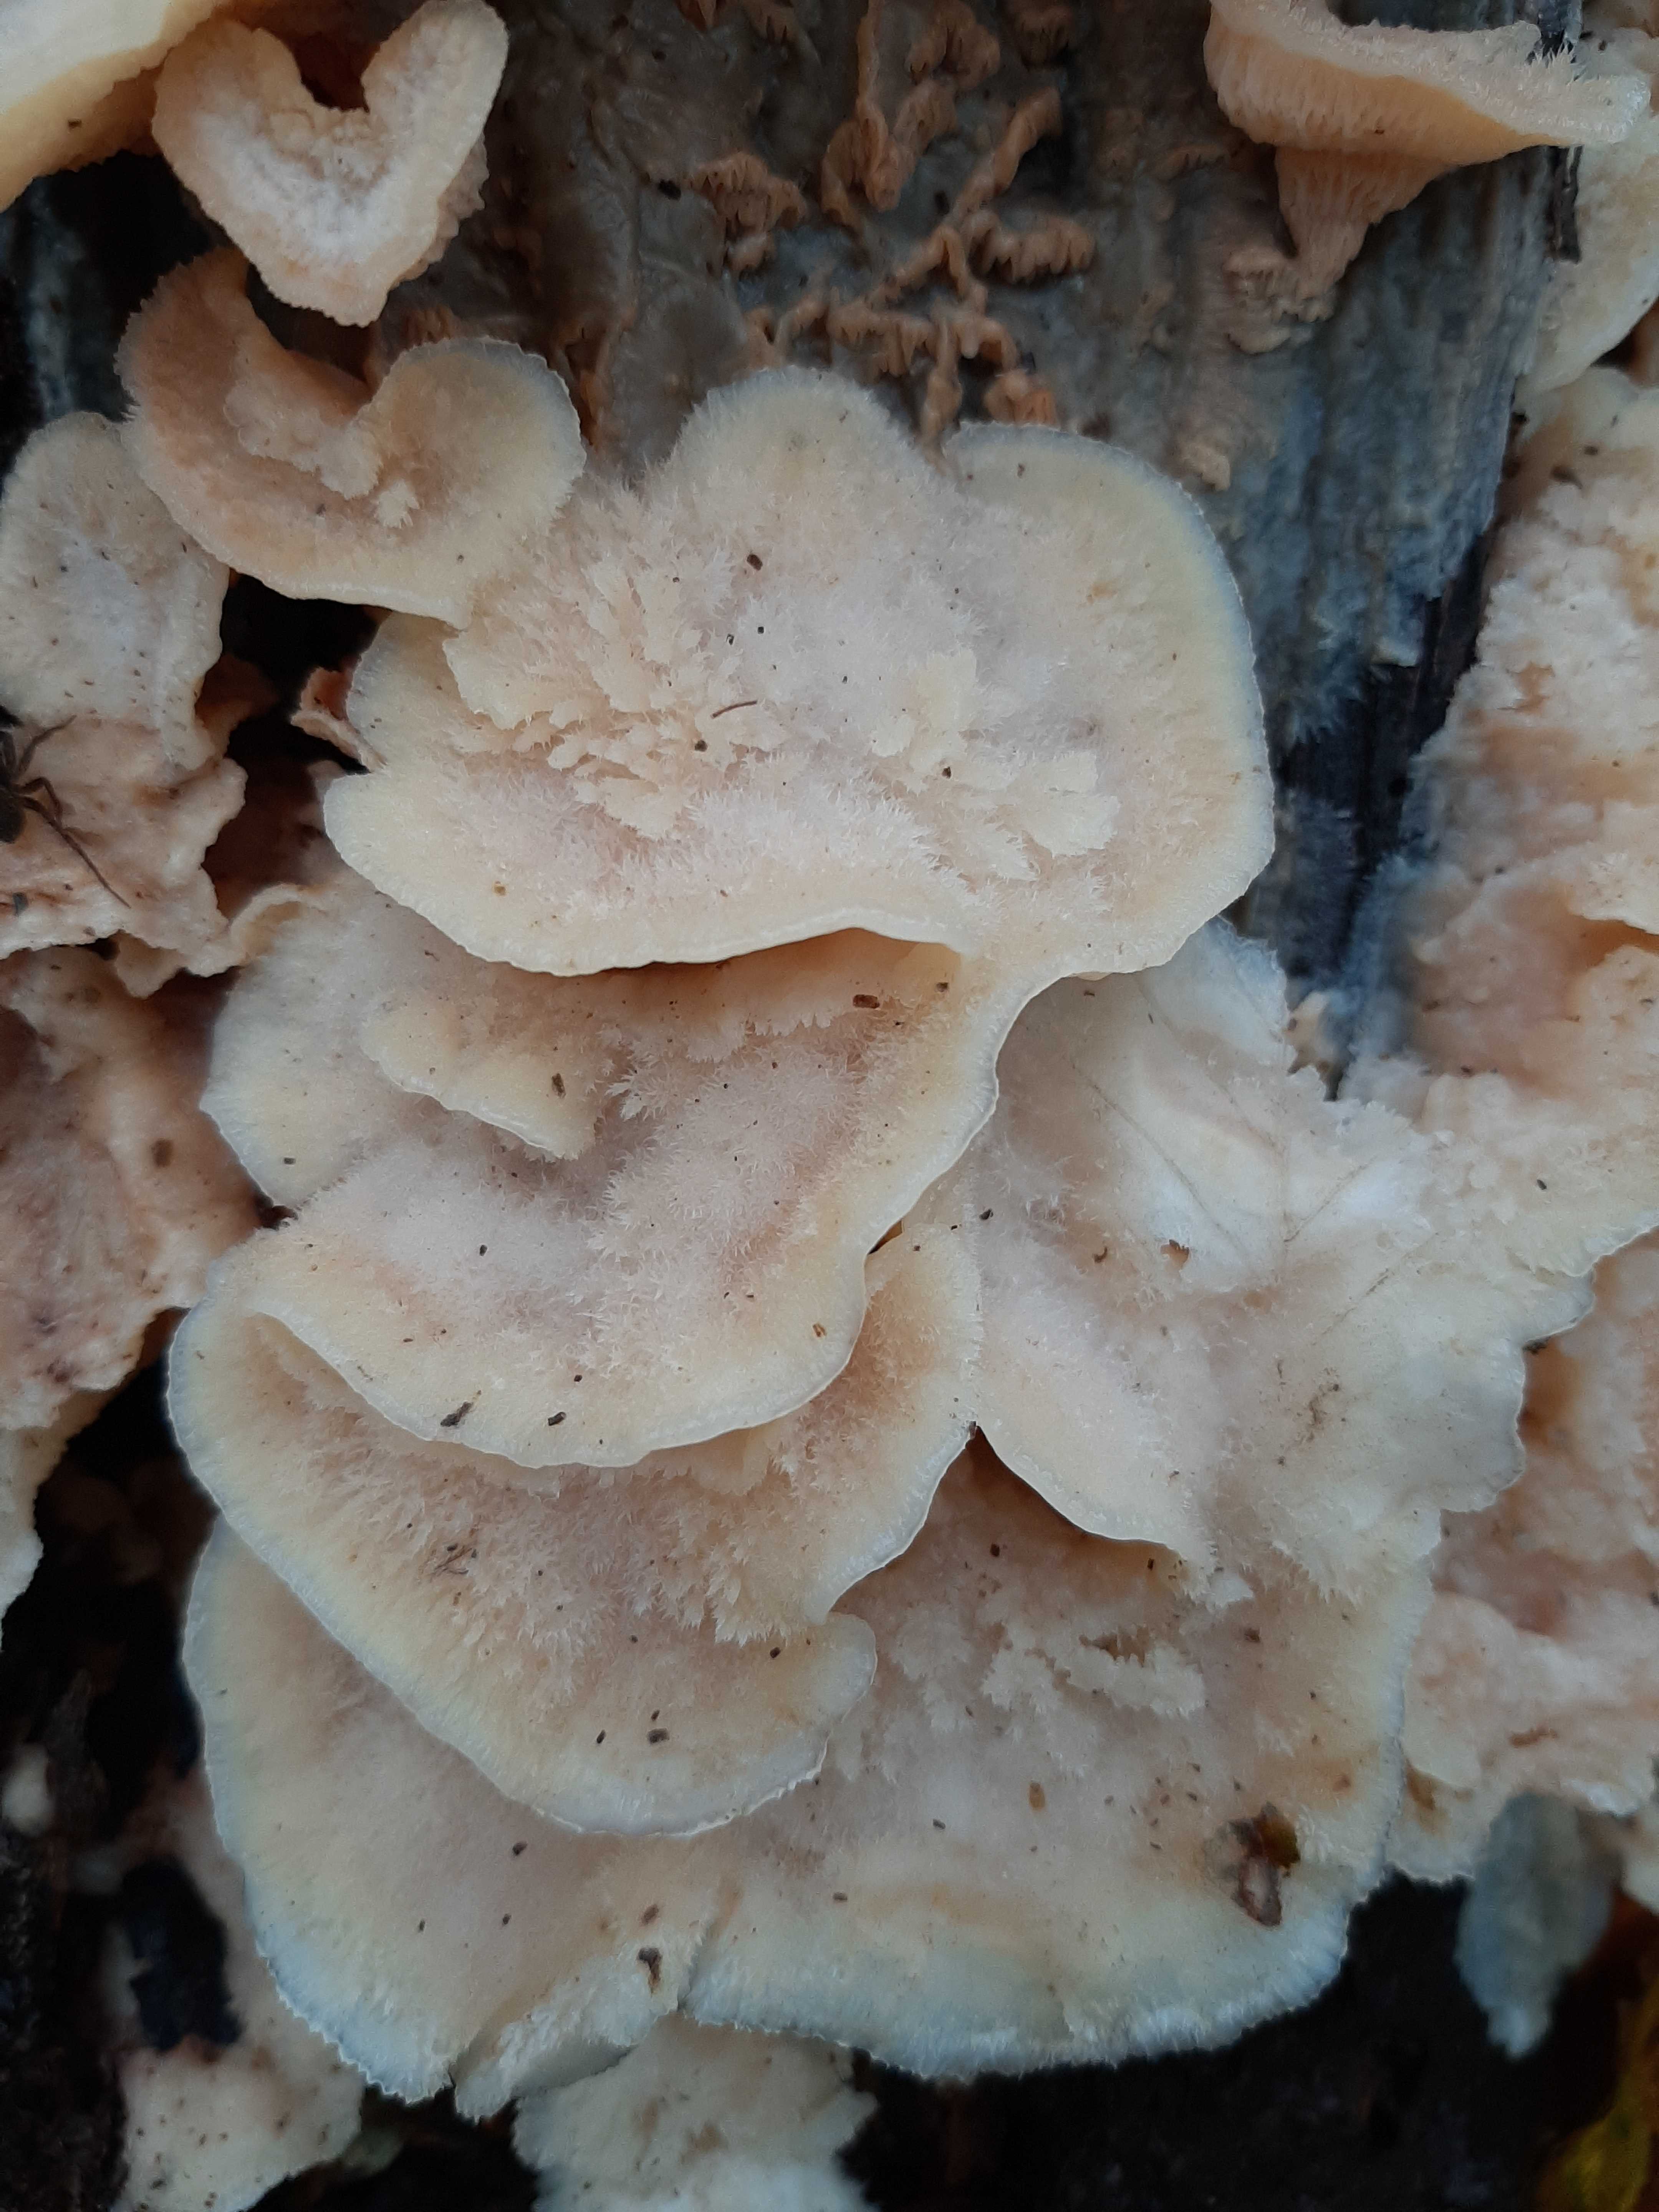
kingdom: Fungi
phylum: Basidiomycota
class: Agaricomycetes
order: Polyporales
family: Meruliaceae
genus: Phlebia
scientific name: Phlebia tremellosa
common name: bævrende åresvamp
